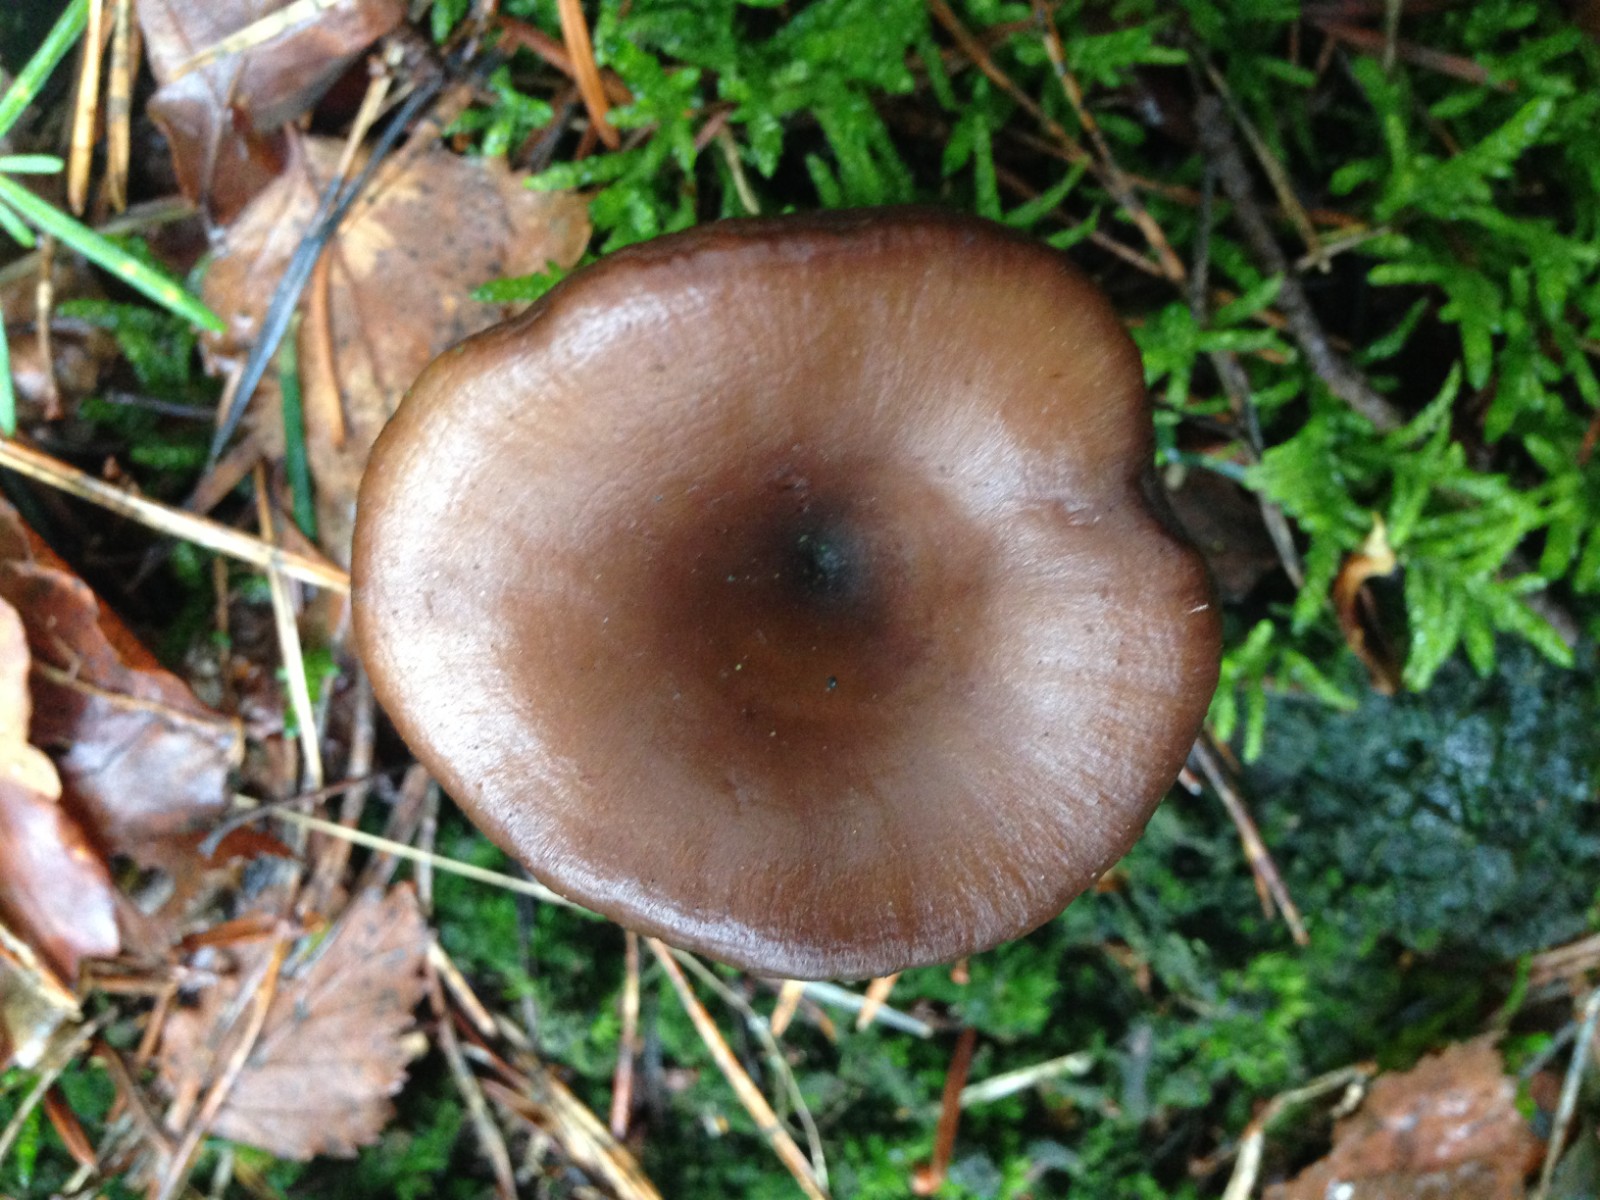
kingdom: Fungi
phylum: Basidiomycota
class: Agaricomycetes
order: Agaricales
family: Pseudoclitocybaceae
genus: Pseudoclitocybe
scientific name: Pseudoclitocybe cyathiformis
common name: almindelig bægertragthat
